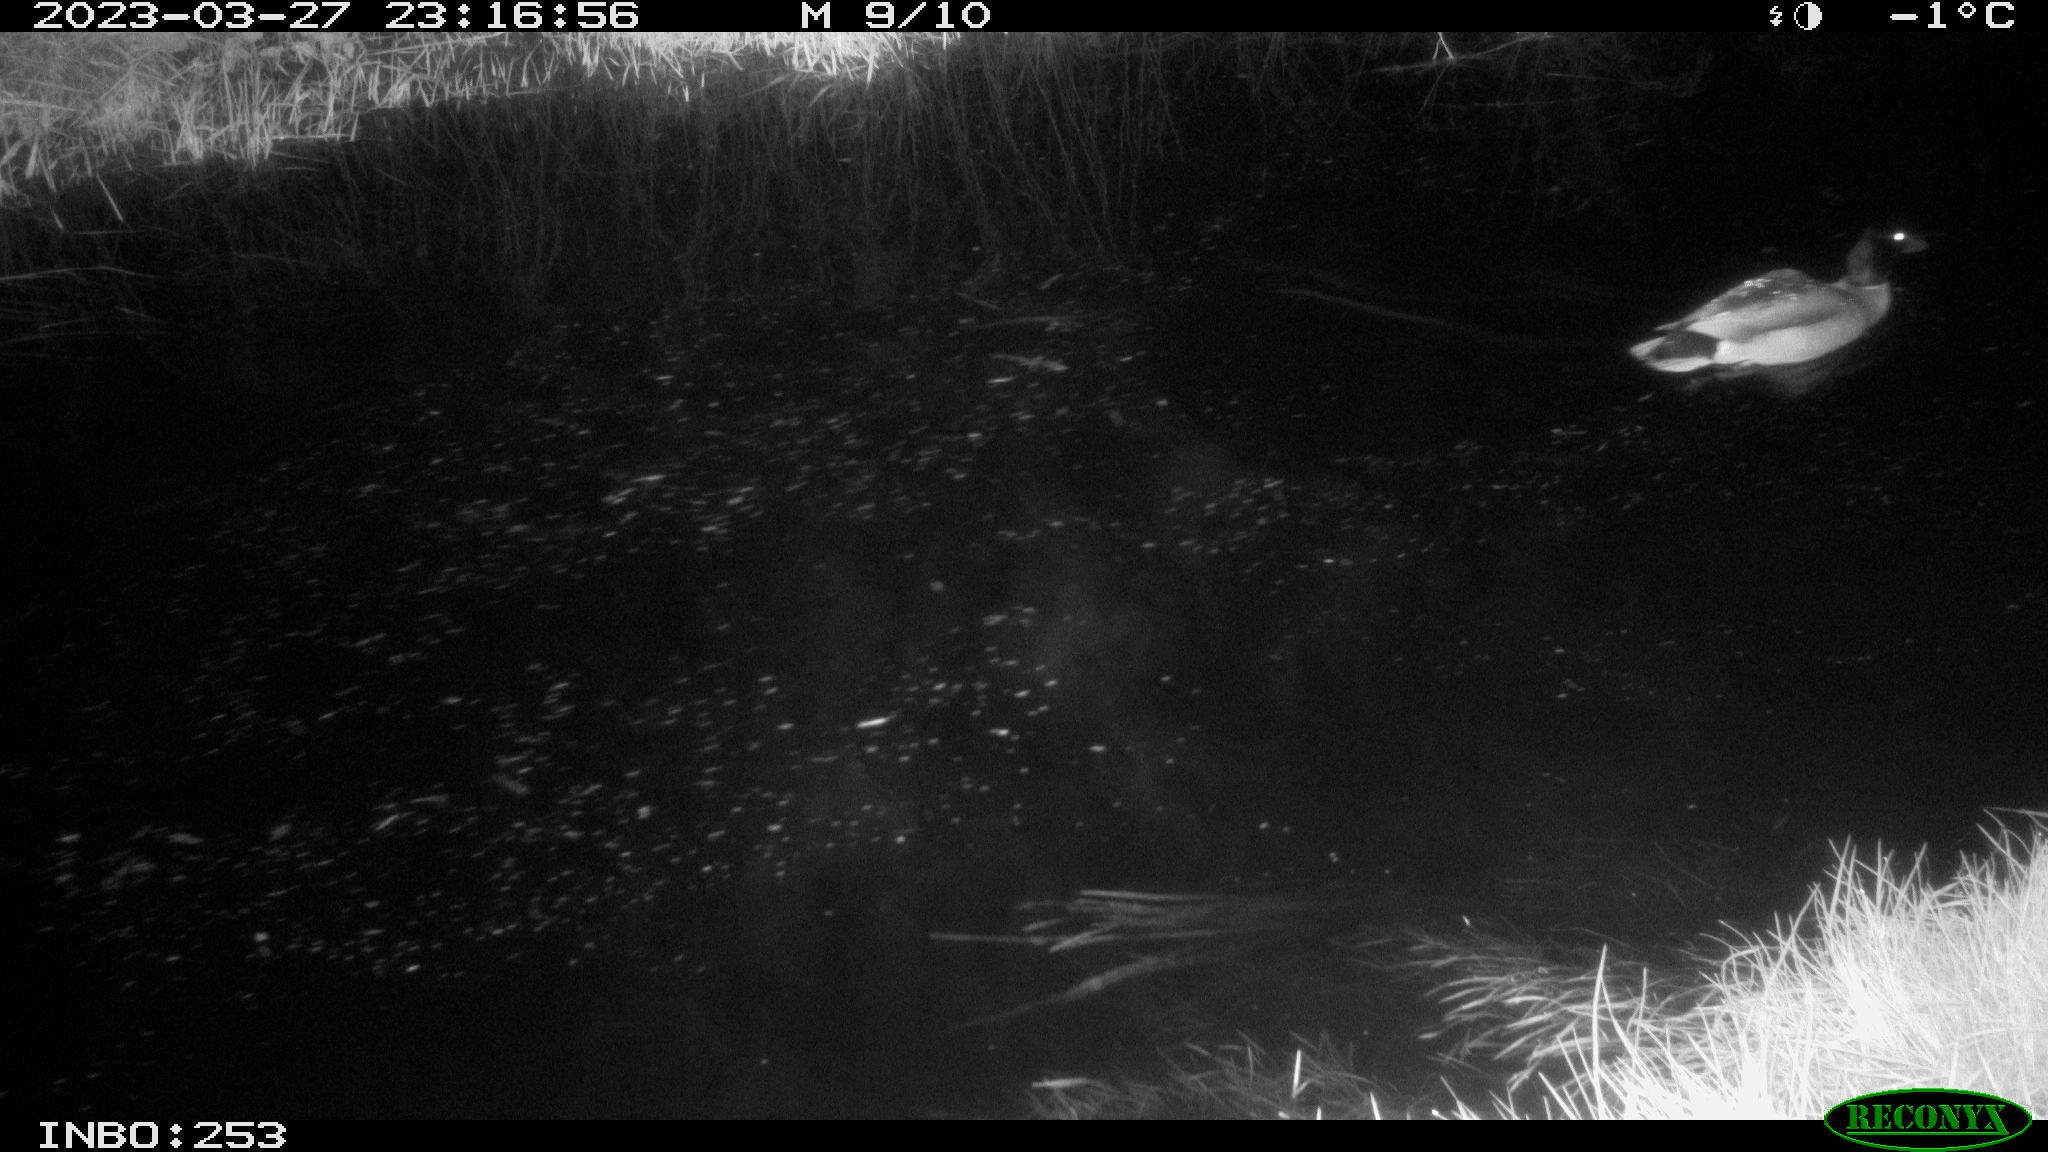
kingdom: Animalia
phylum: Chordata
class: Aves
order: Anseriformes
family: Anatidae
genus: Anas
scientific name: Anas
